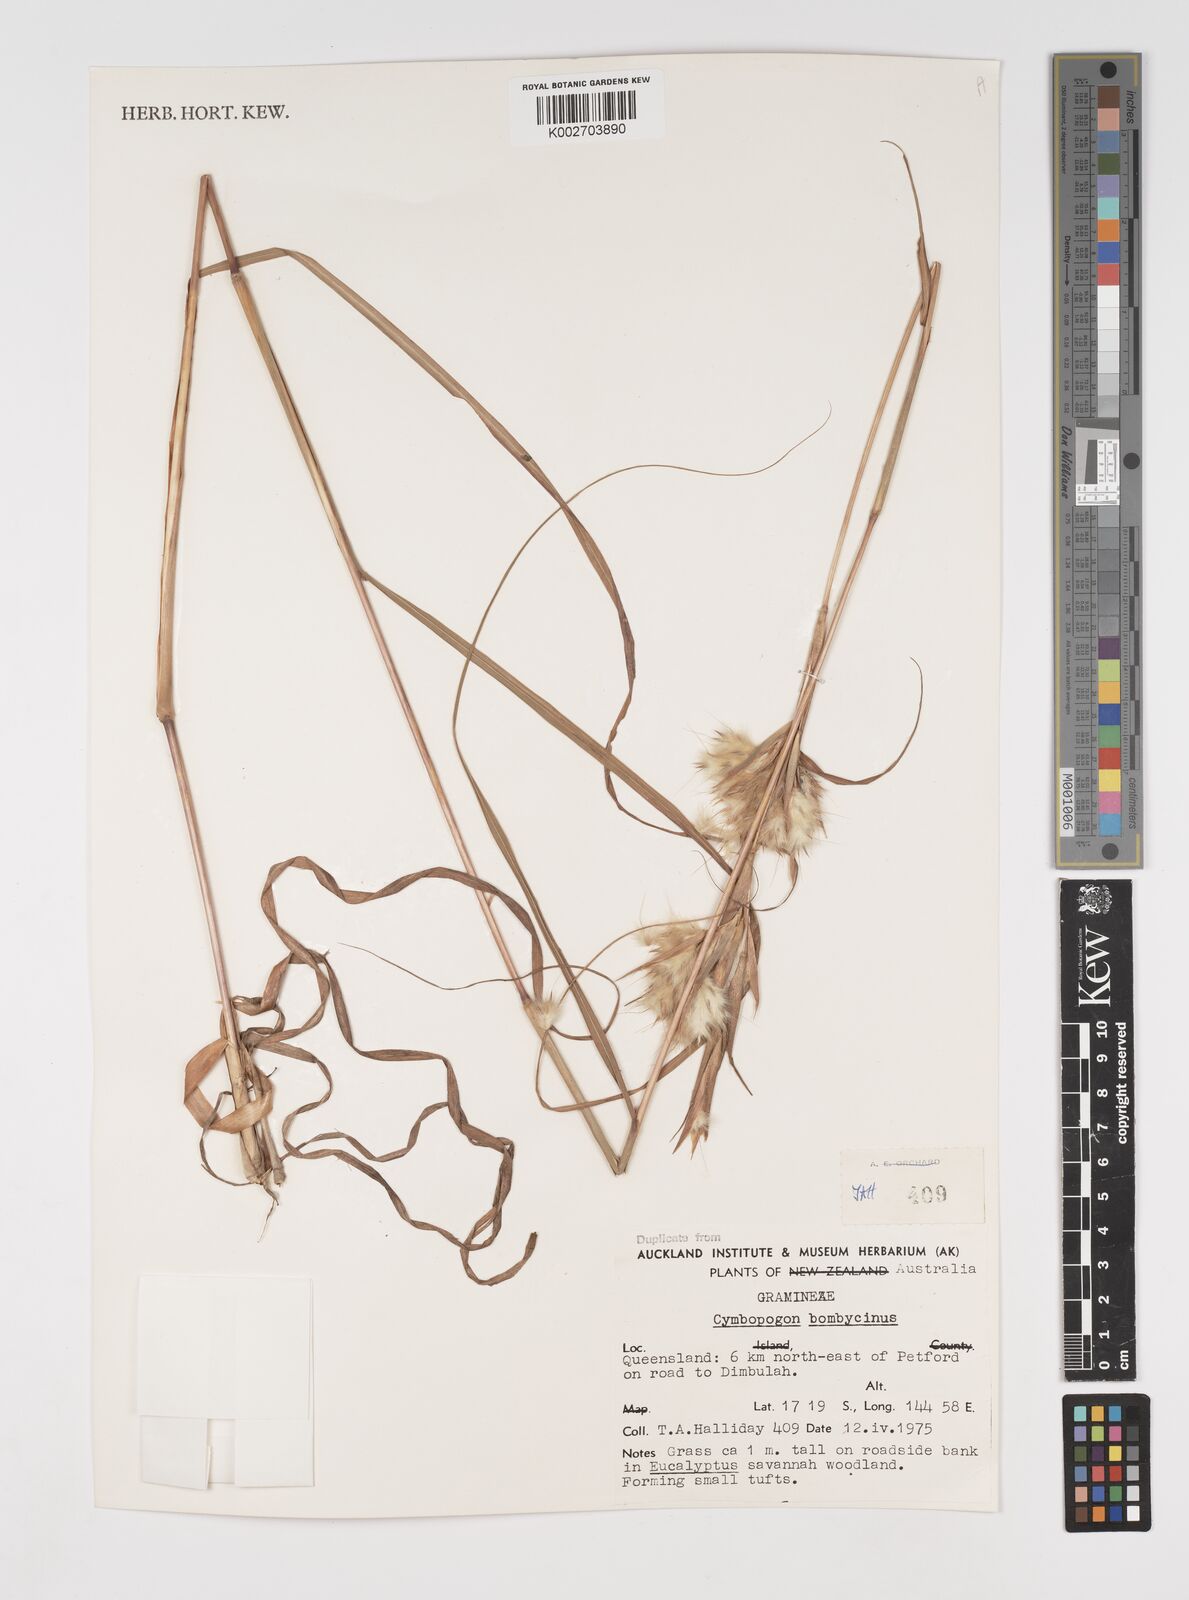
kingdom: Plantae
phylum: Tracheophyta
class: Liliopsida
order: Poales
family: Poaceae
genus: Cymbopogon
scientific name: Cymbopogon bombycinus
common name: Citronella grass
